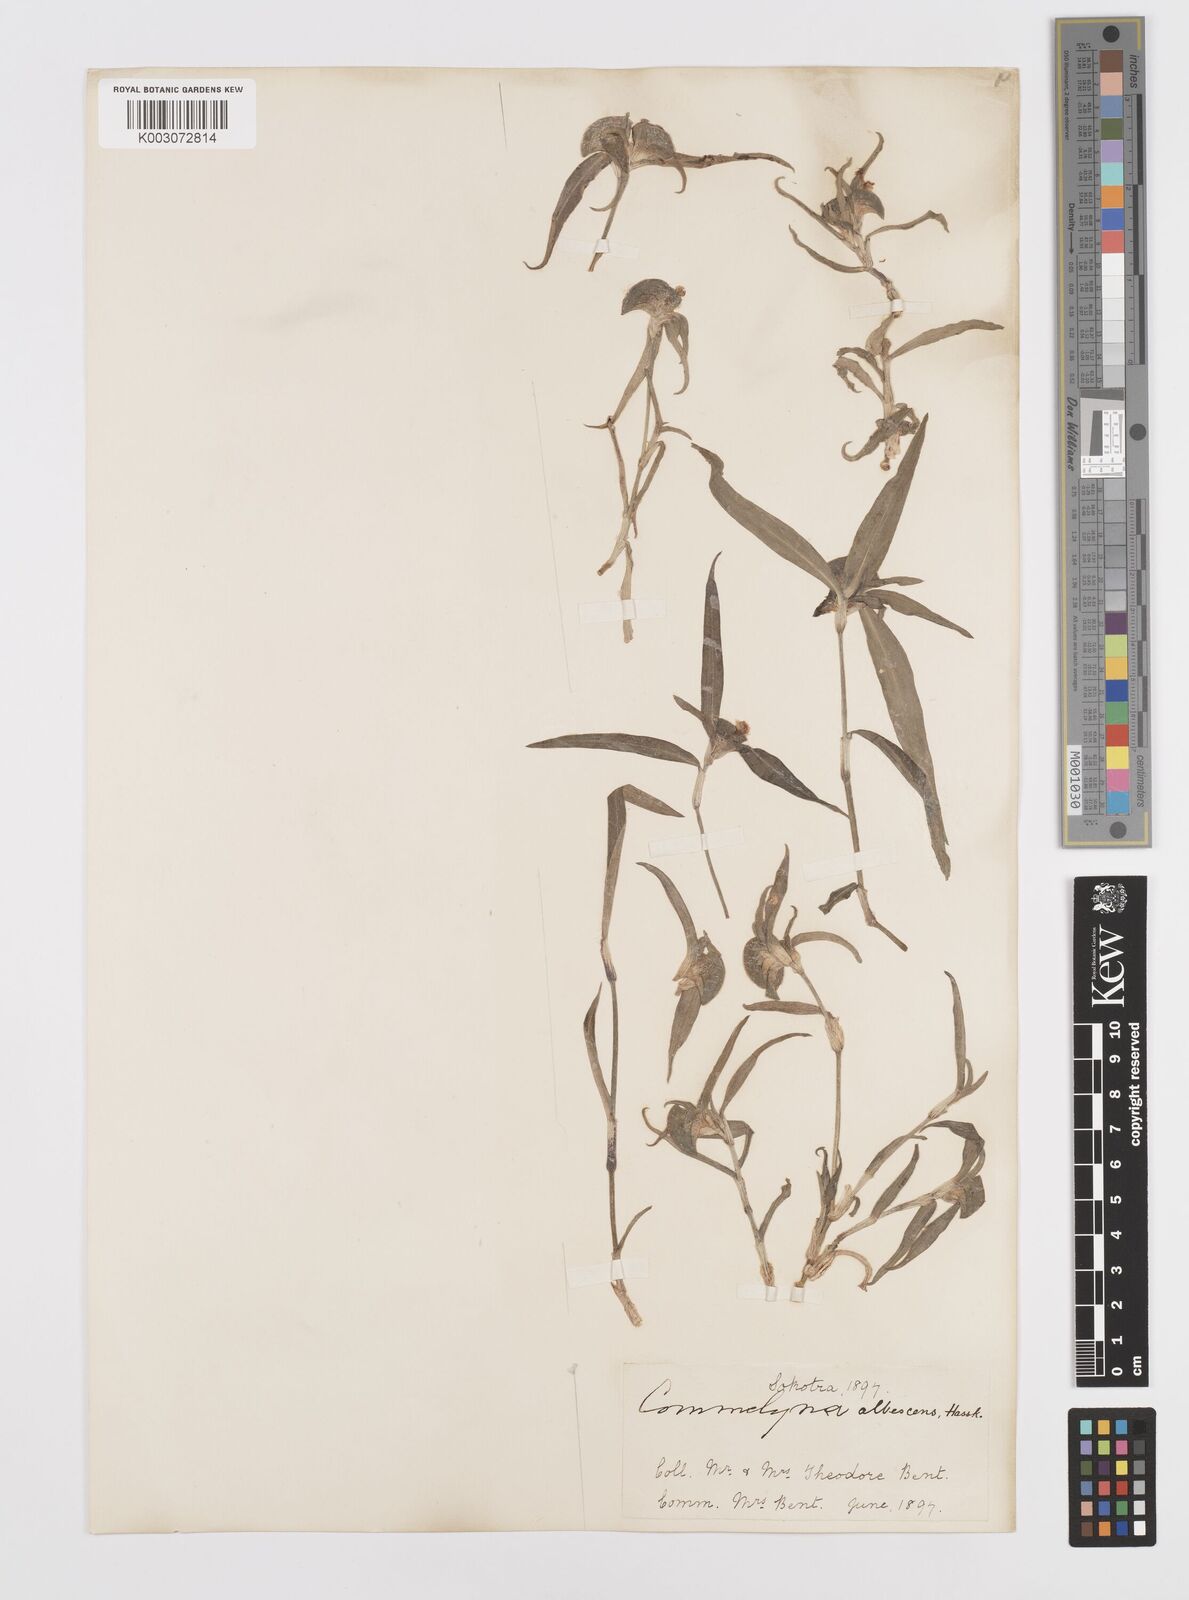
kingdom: Plantae
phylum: Tracheophyta
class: Liliopsida
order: Commelinales
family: Commelinaceae
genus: Commelina
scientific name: Commelina albescens
